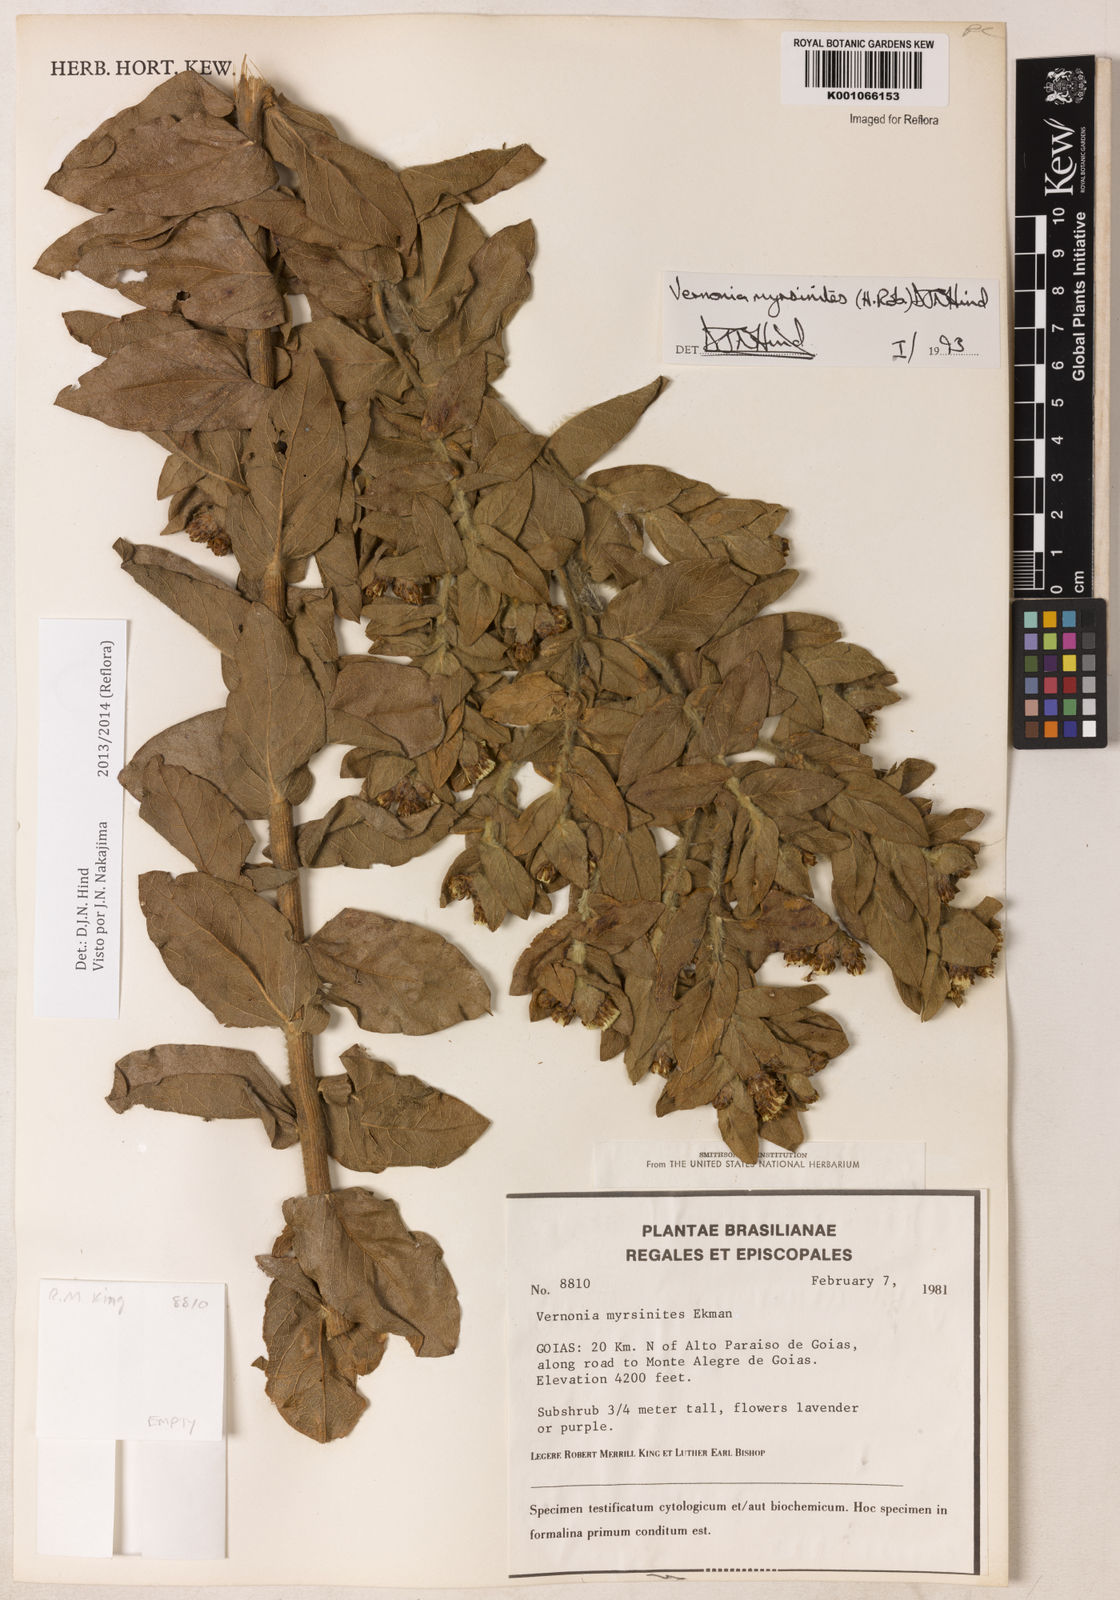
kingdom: Plantae
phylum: Tracheophyta
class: Magnoliopsida
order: Asterales
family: Asteraceae
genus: Lessingianthus
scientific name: Lessingianthus myrsinites
